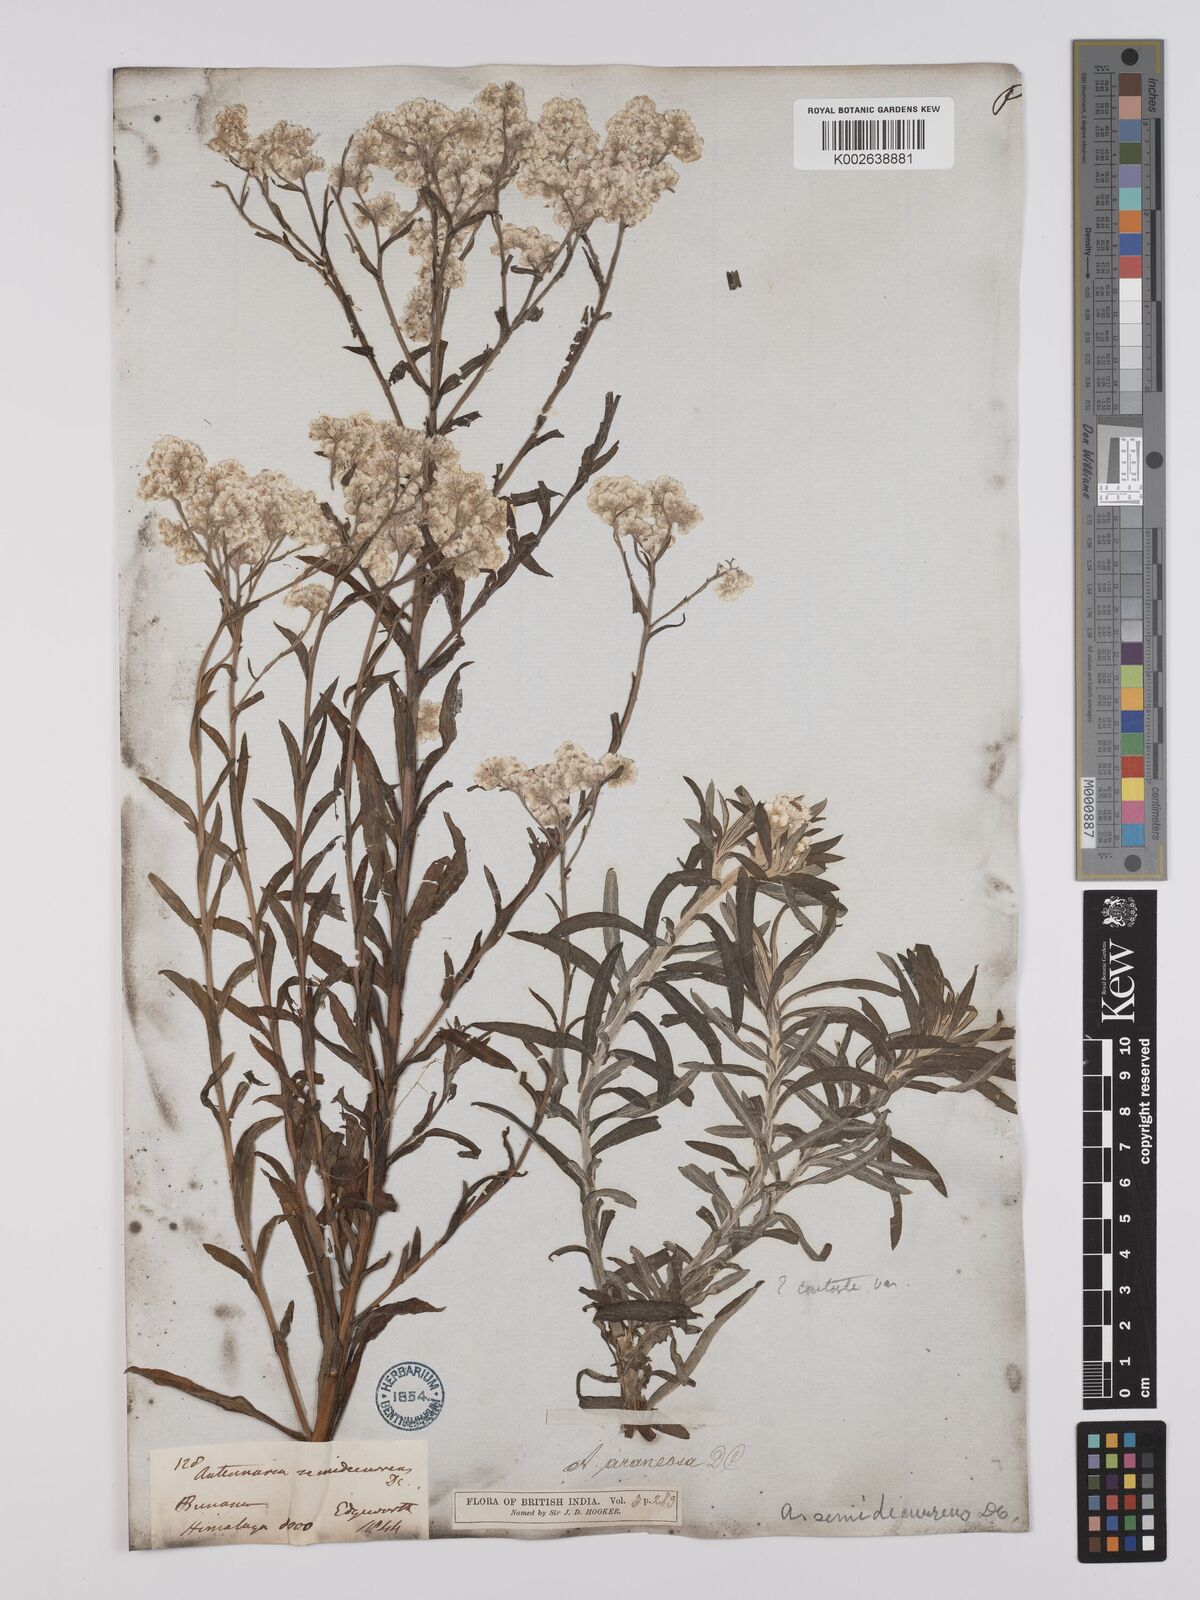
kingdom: Plantae
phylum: Tracheophyta
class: Magnoliopsida
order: Asterales
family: Asteraceae
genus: Anaphalis
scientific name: Anaphalis busua
